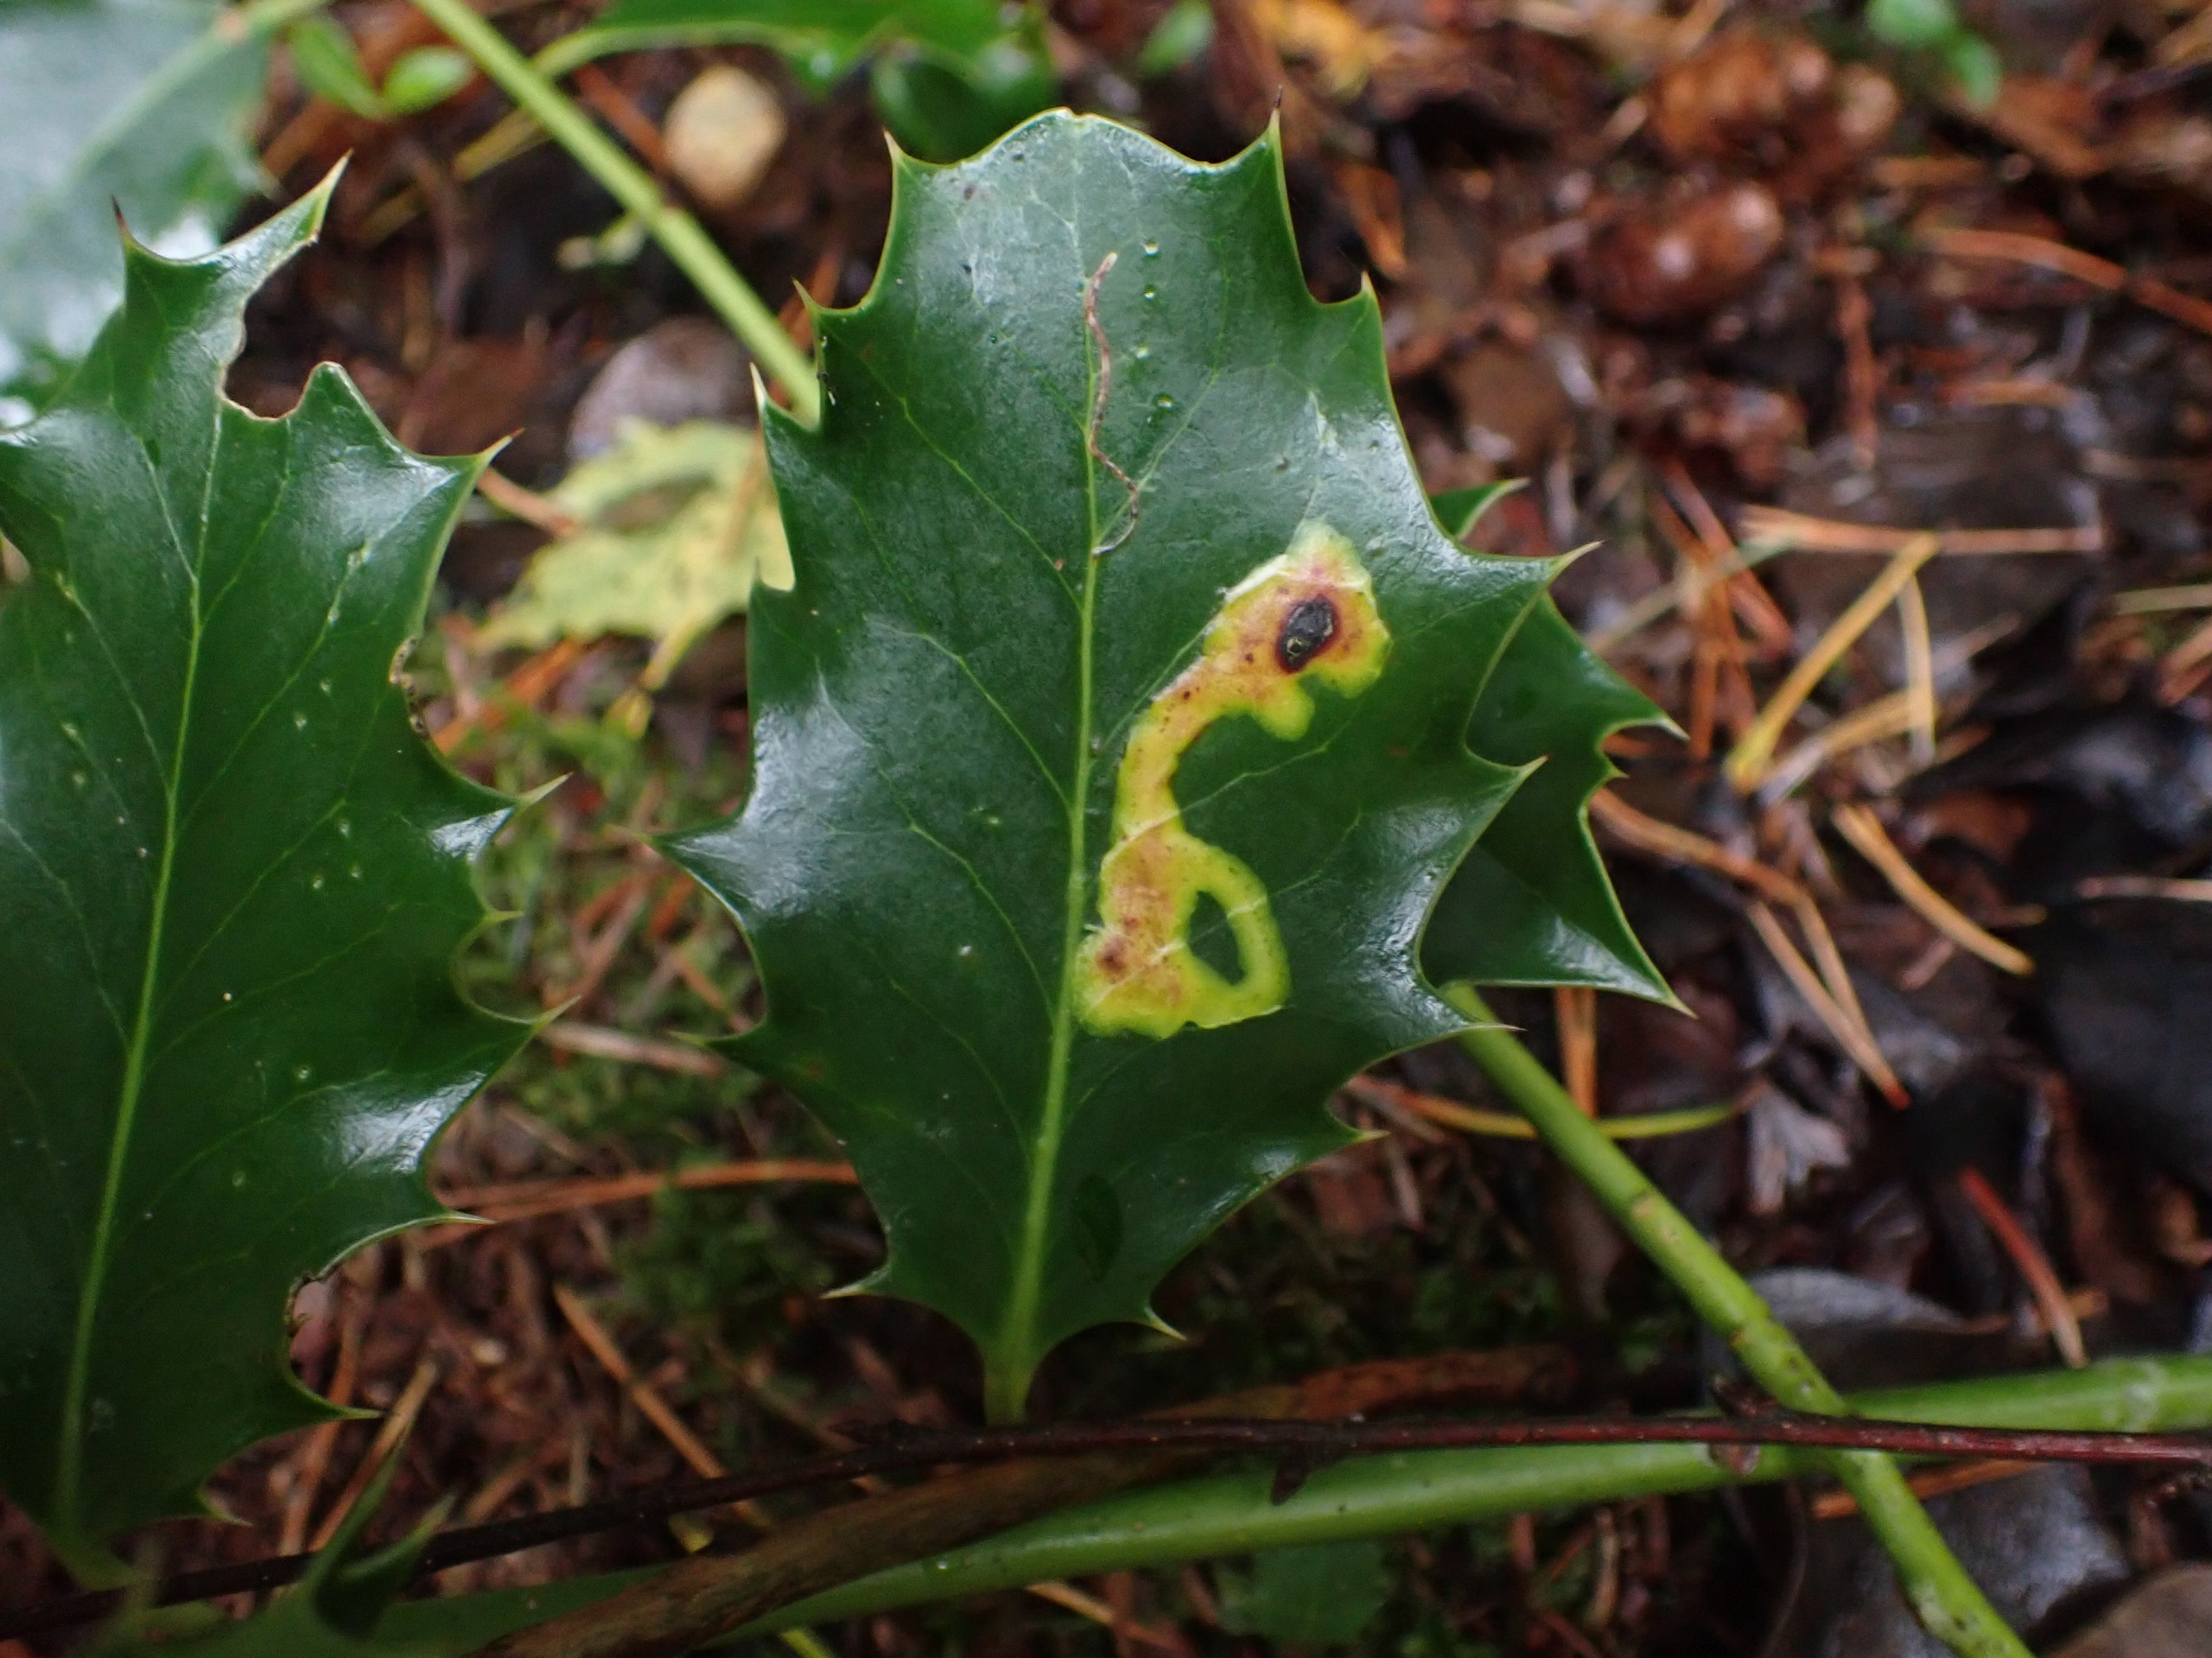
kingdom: Animalia
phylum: Arthropoda
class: Insecta
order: Diptera
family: Agromyzidae
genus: Phytomyza
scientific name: Phytomyza ilicis
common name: Kristtornminérflue
